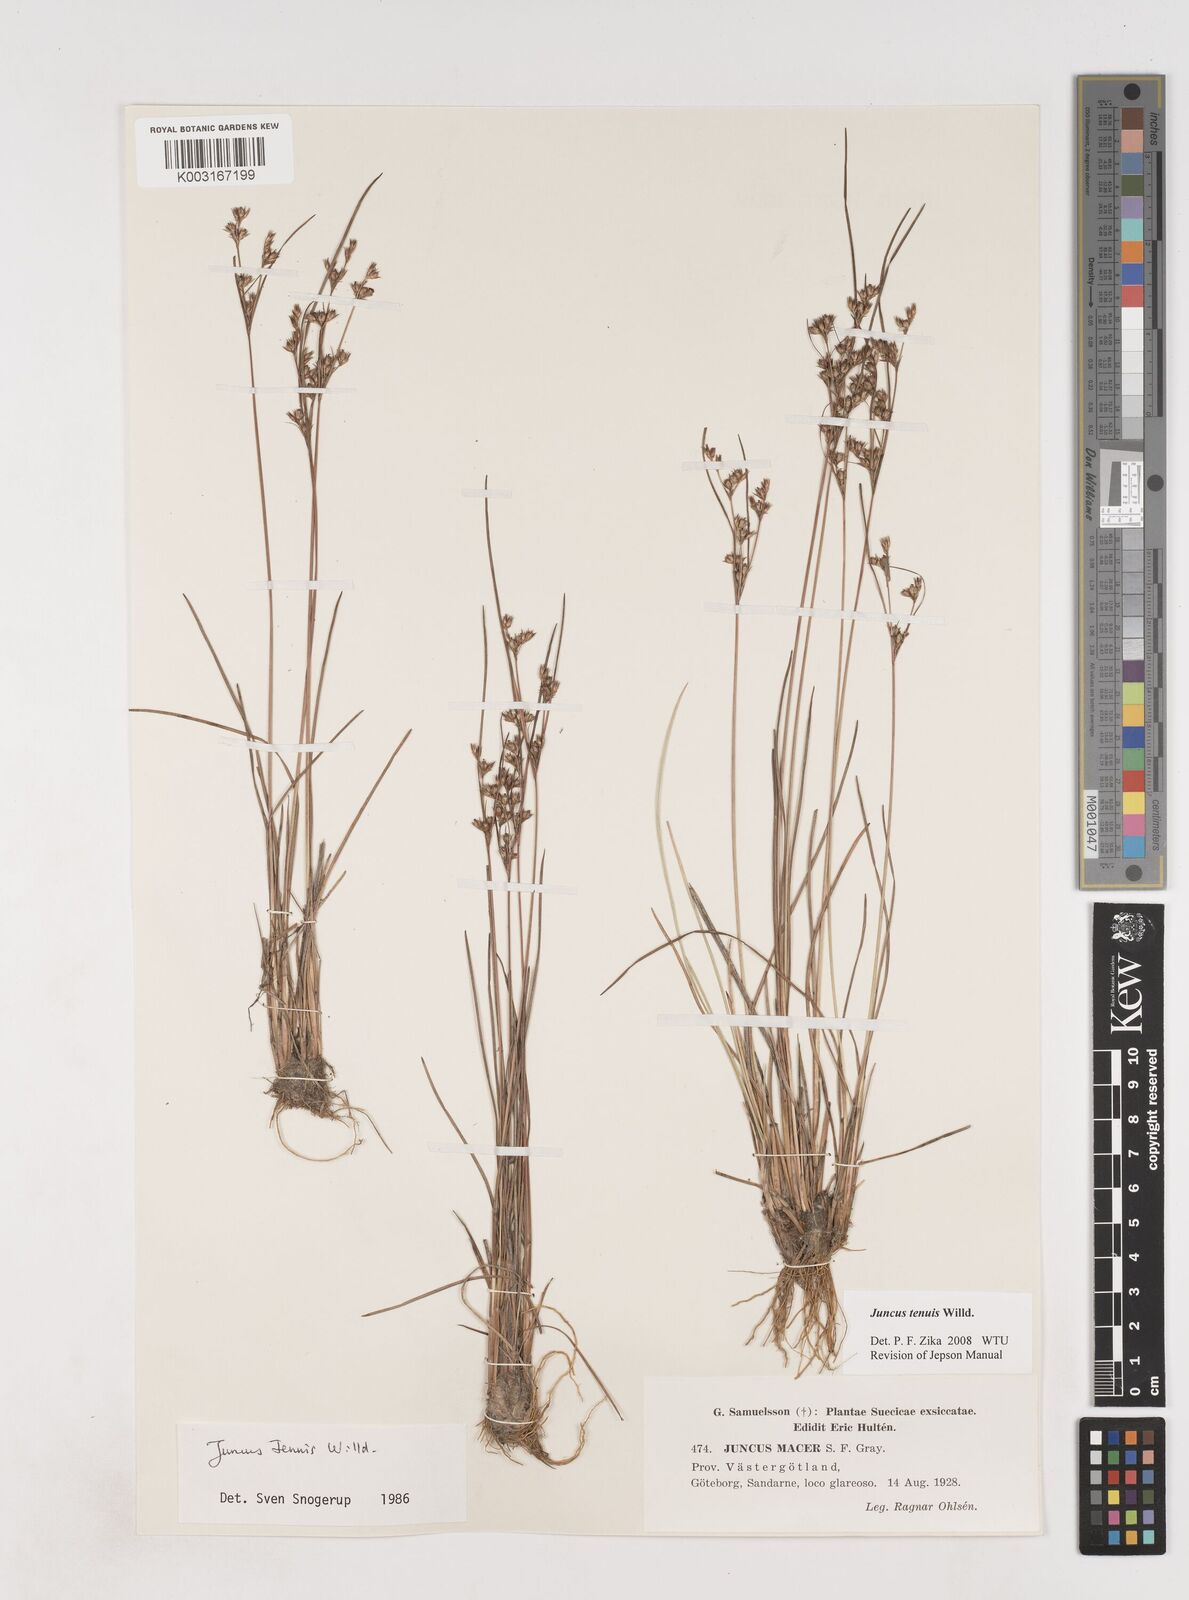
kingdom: Plantae
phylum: Tracheophyta
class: Liliopsida
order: Poales
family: Juncaceae
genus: Juncus
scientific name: Juncus tenuis
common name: Slender rush
